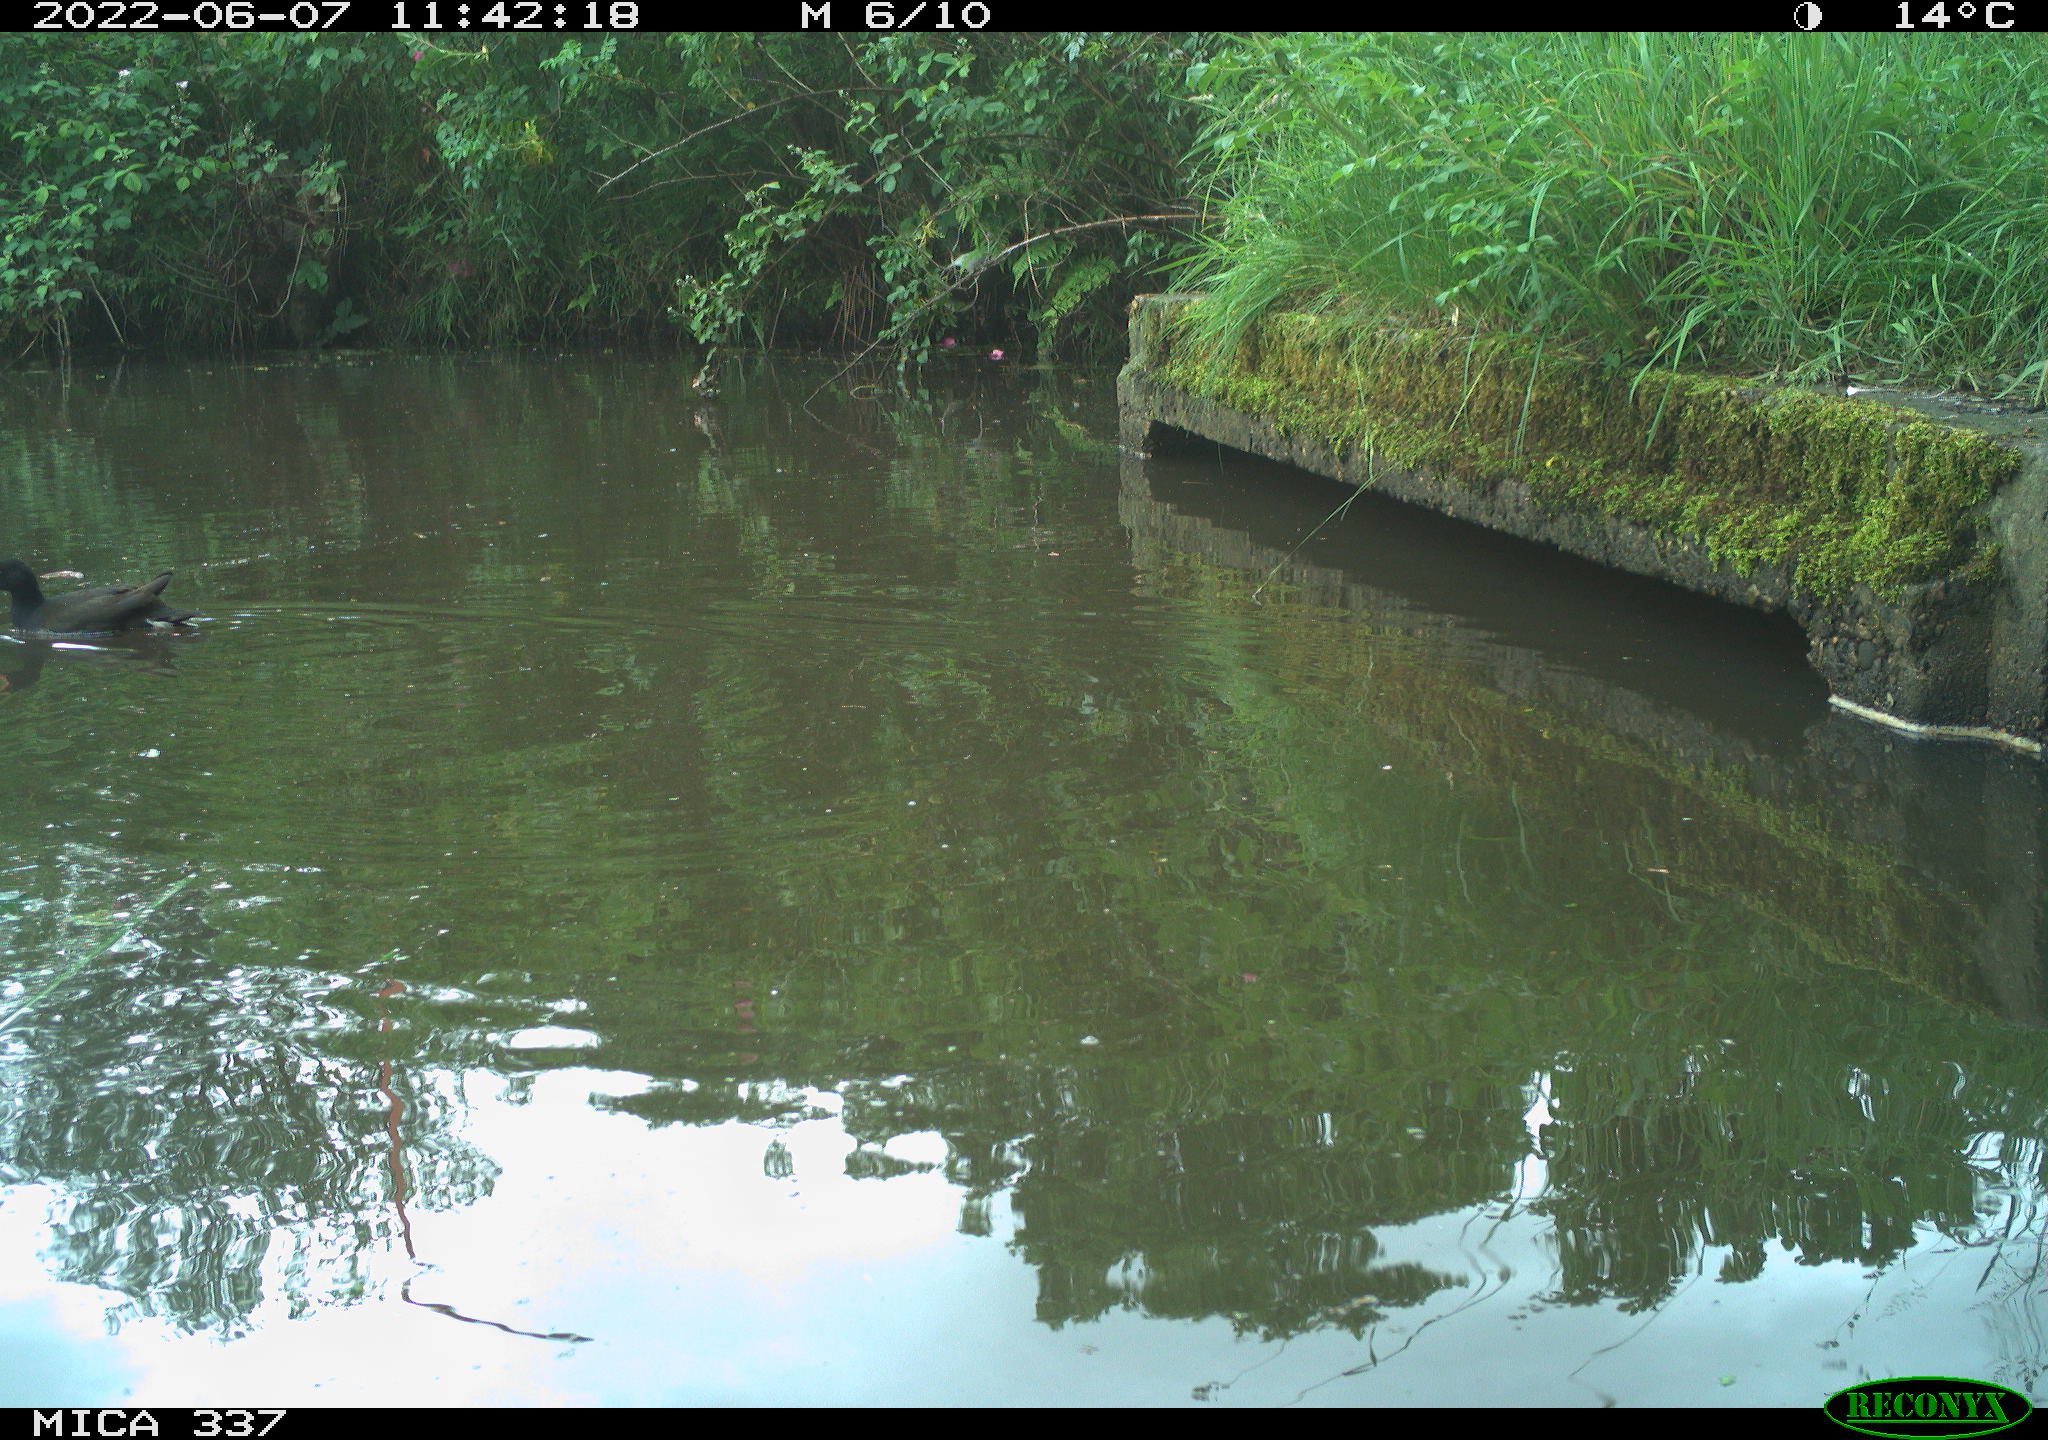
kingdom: Animalia
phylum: Chordata
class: Aves
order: Gruiformes
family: Rallidae
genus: Gallinula
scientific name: Gallinula chloropus
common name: Common moorhen
